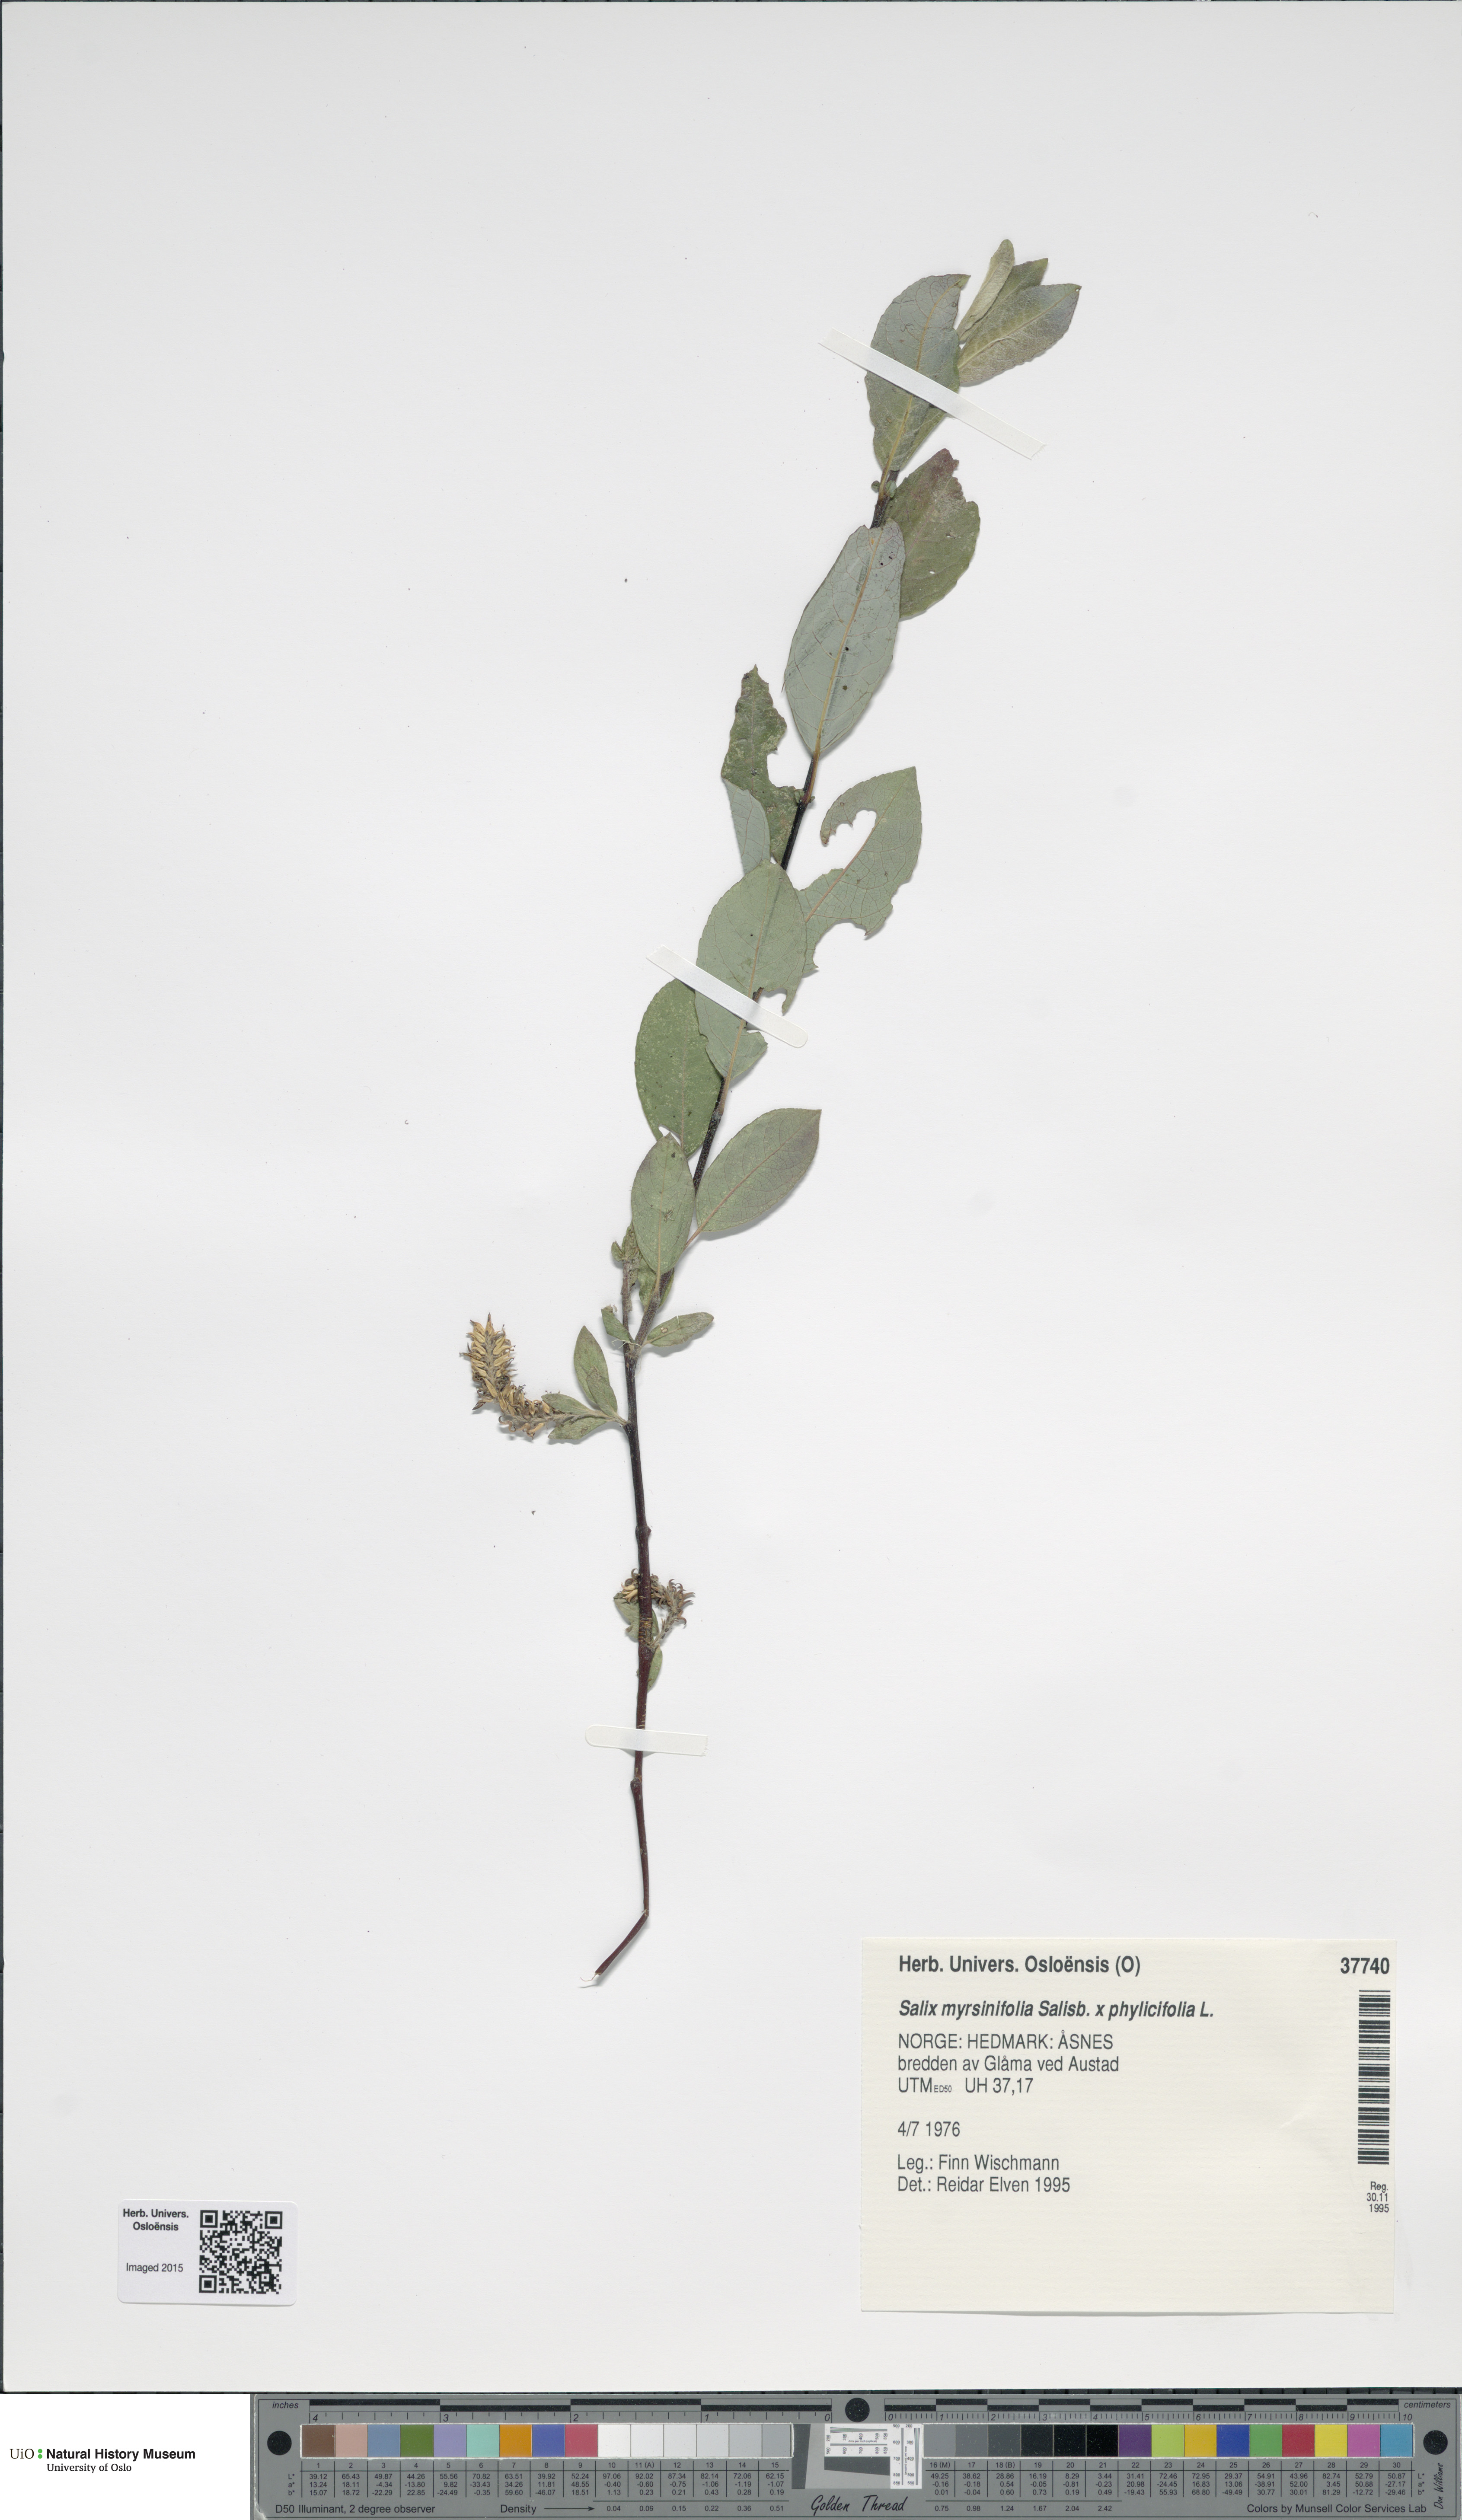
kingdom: Plantae
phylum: Tracheophyta
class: Magnoliopsida
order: Malpighiales
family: Salicaceae
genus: Salix
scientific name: Salix
